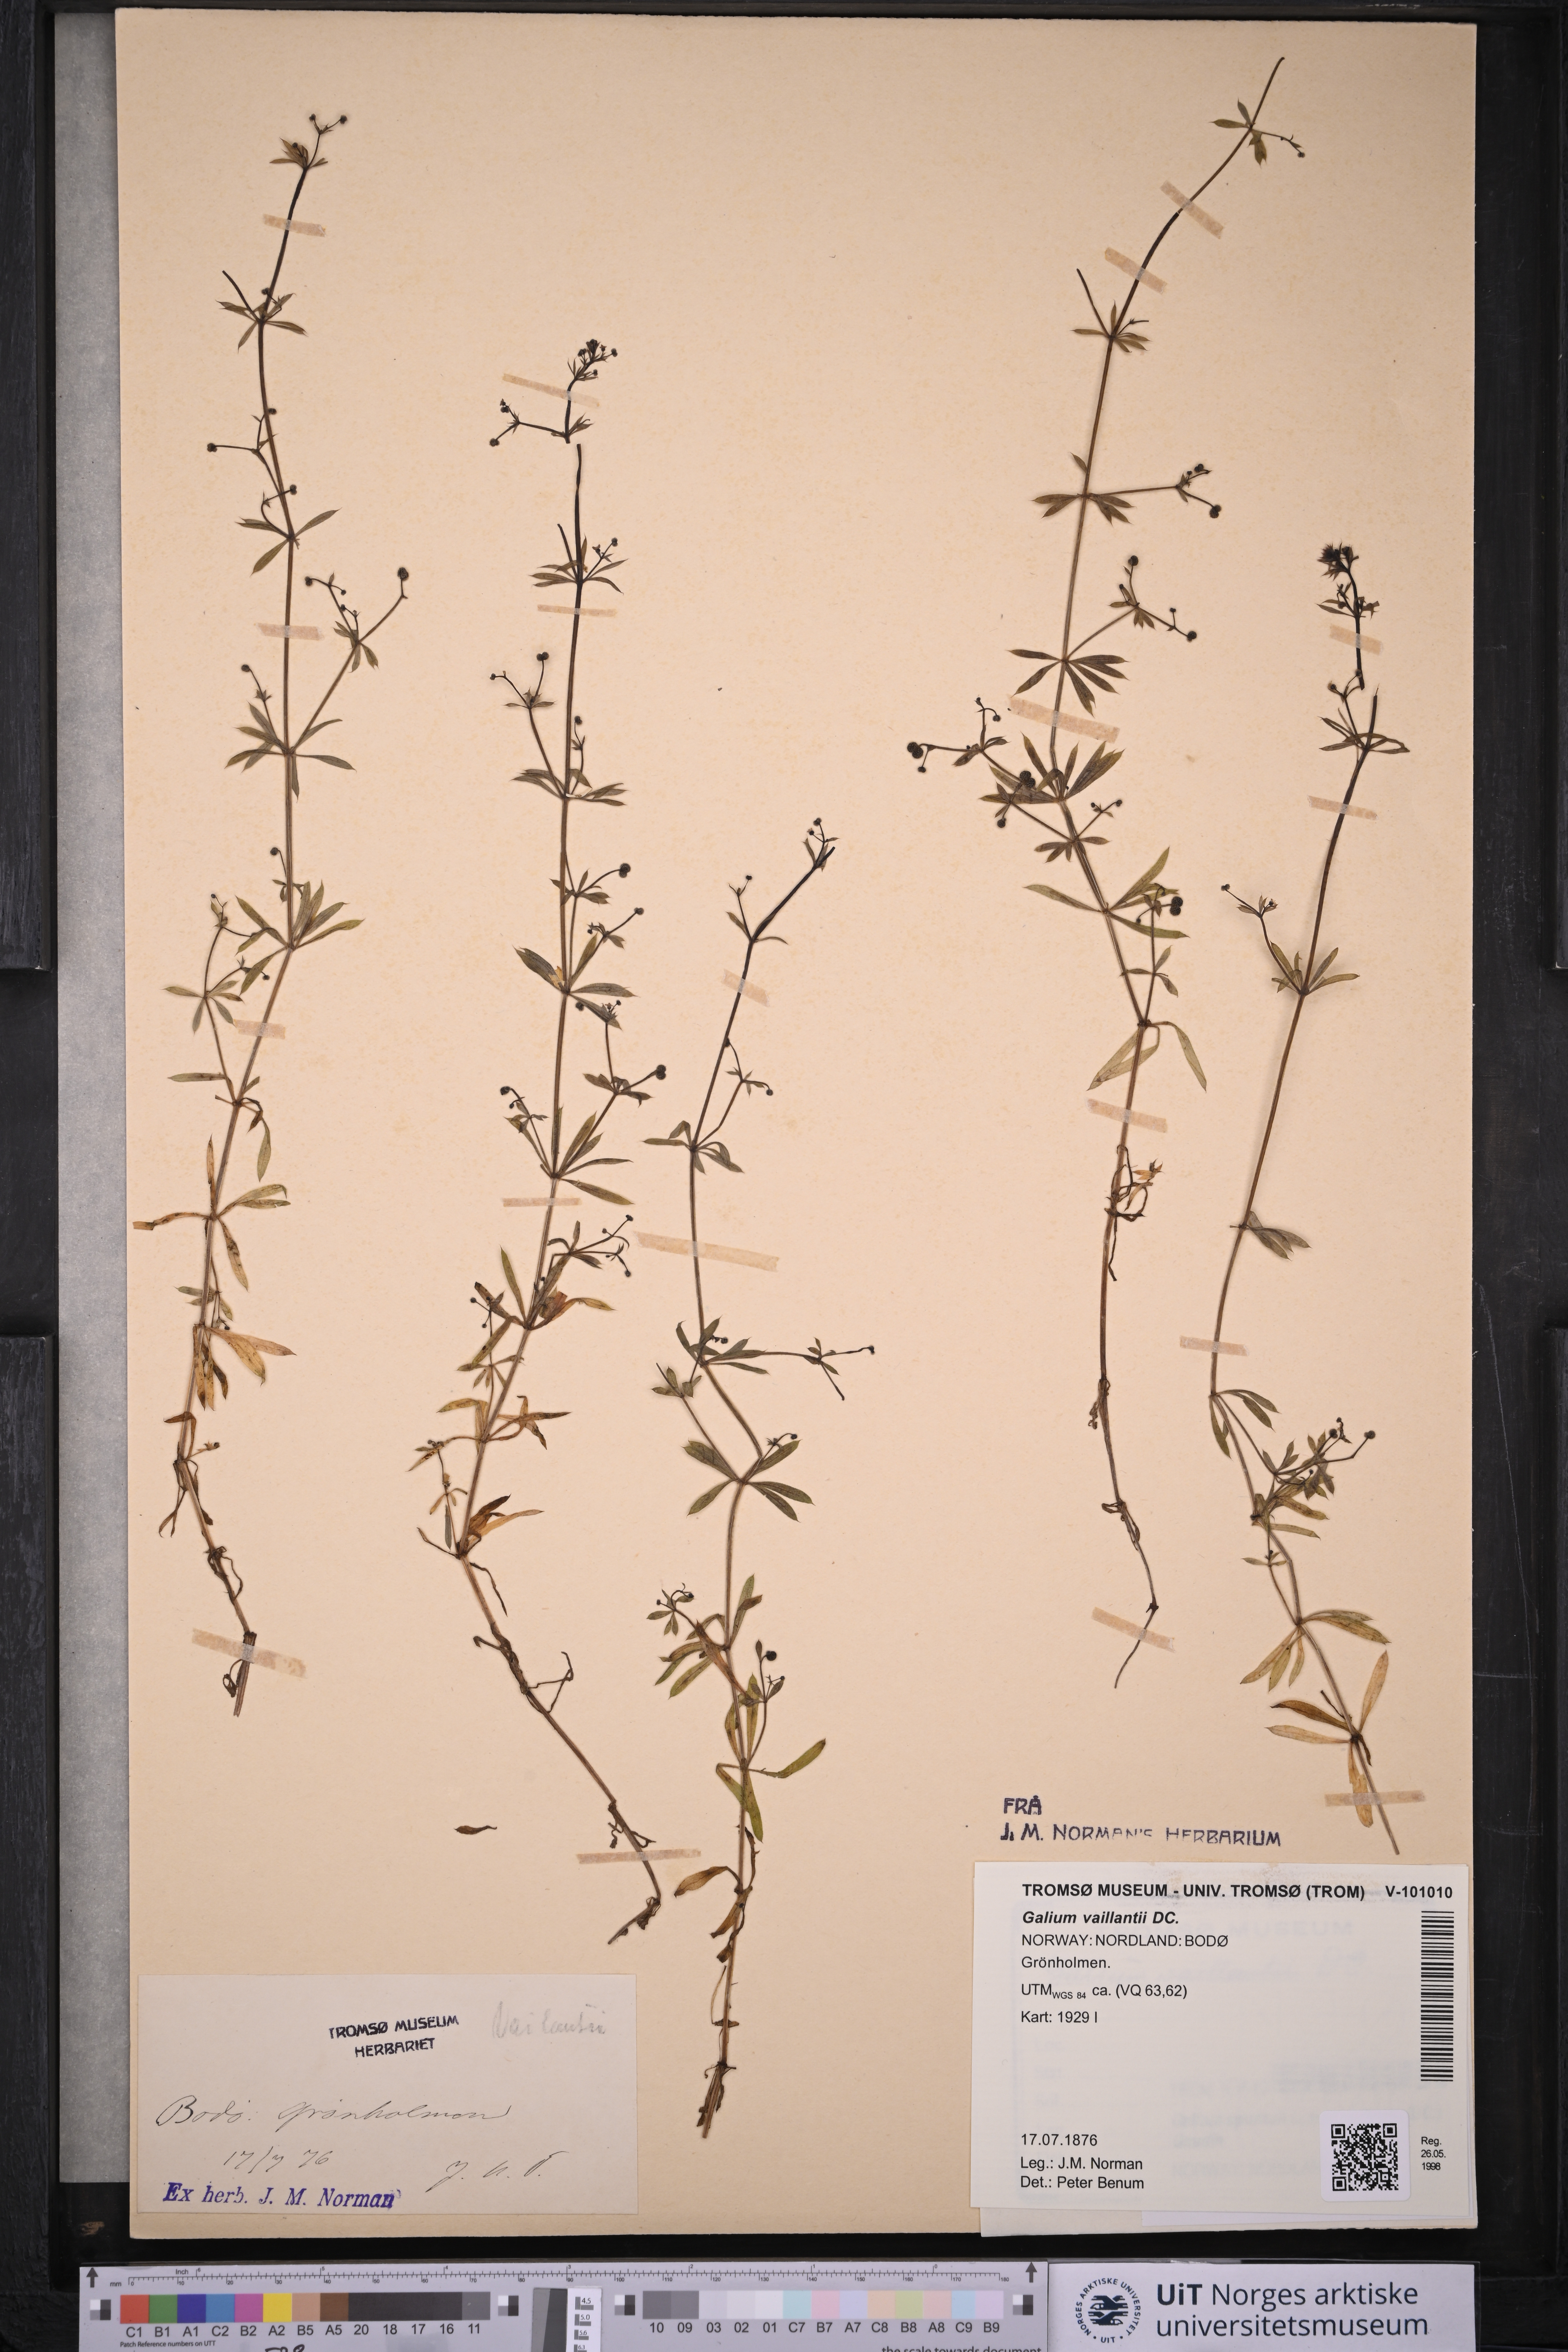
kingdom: Plantae
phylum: Tracheophyta
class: Magnoliopsida
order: Gentianales
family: Rubiaceae
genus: Galium
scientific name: Galium spurium
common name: False cleavers
